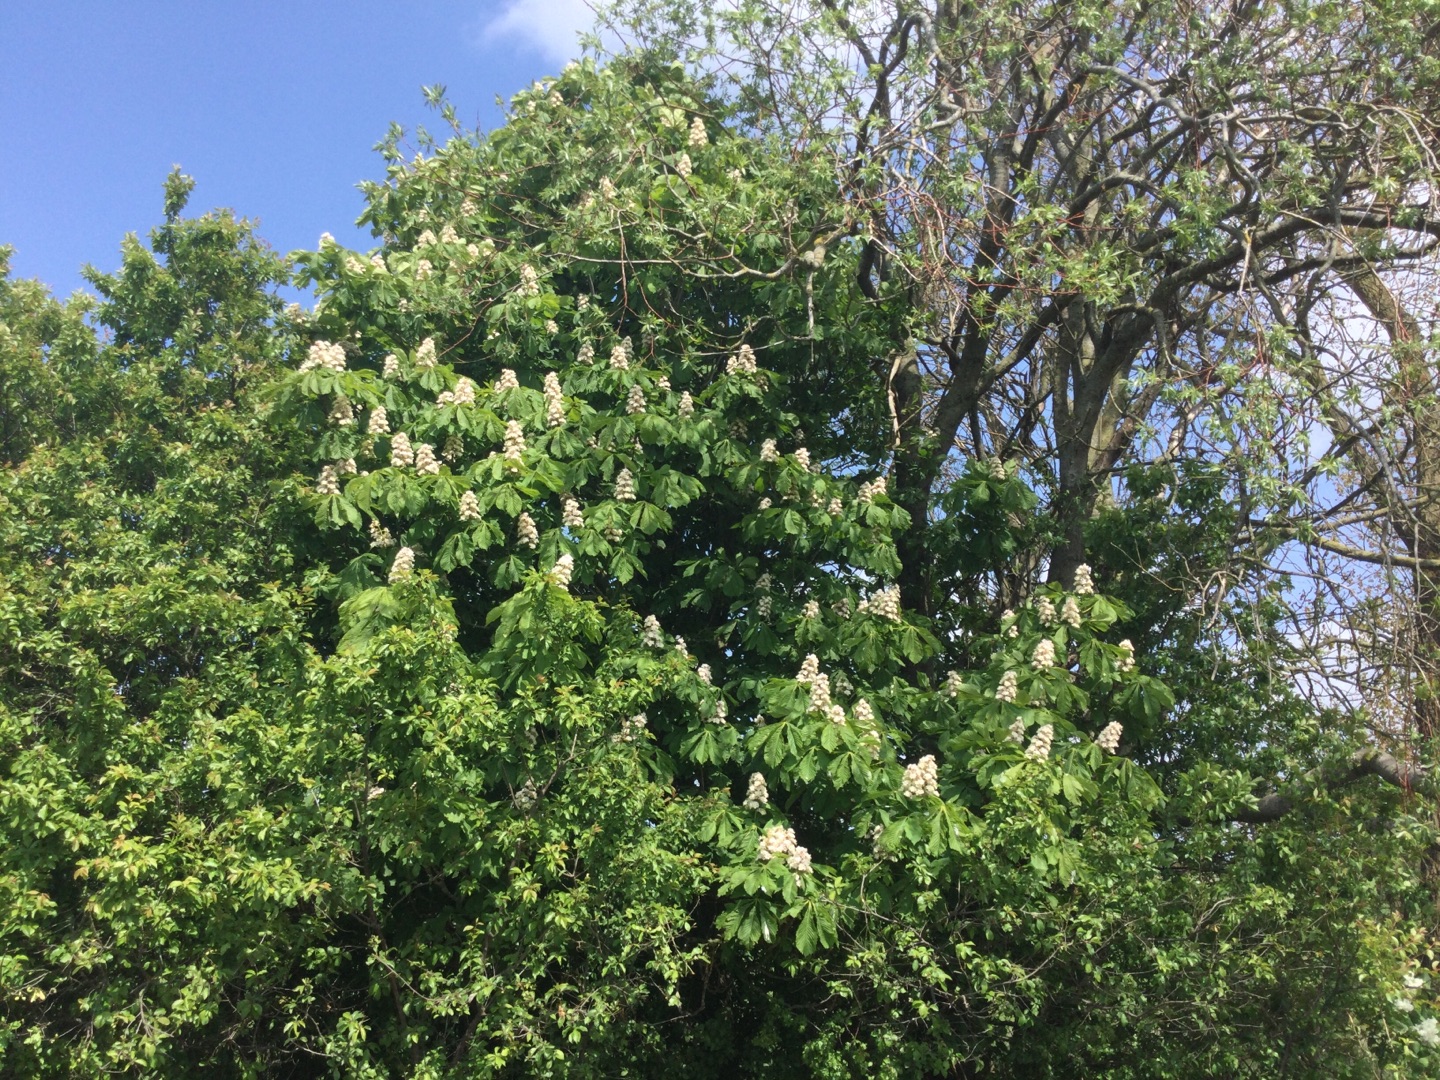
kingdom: Plantae
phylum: Tracheophyta
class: Magnoliopsida
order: Sapindales
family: Sapindaceae
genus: Aesculus
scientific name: Aesculus hippocastanum
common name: Hestekastanie
